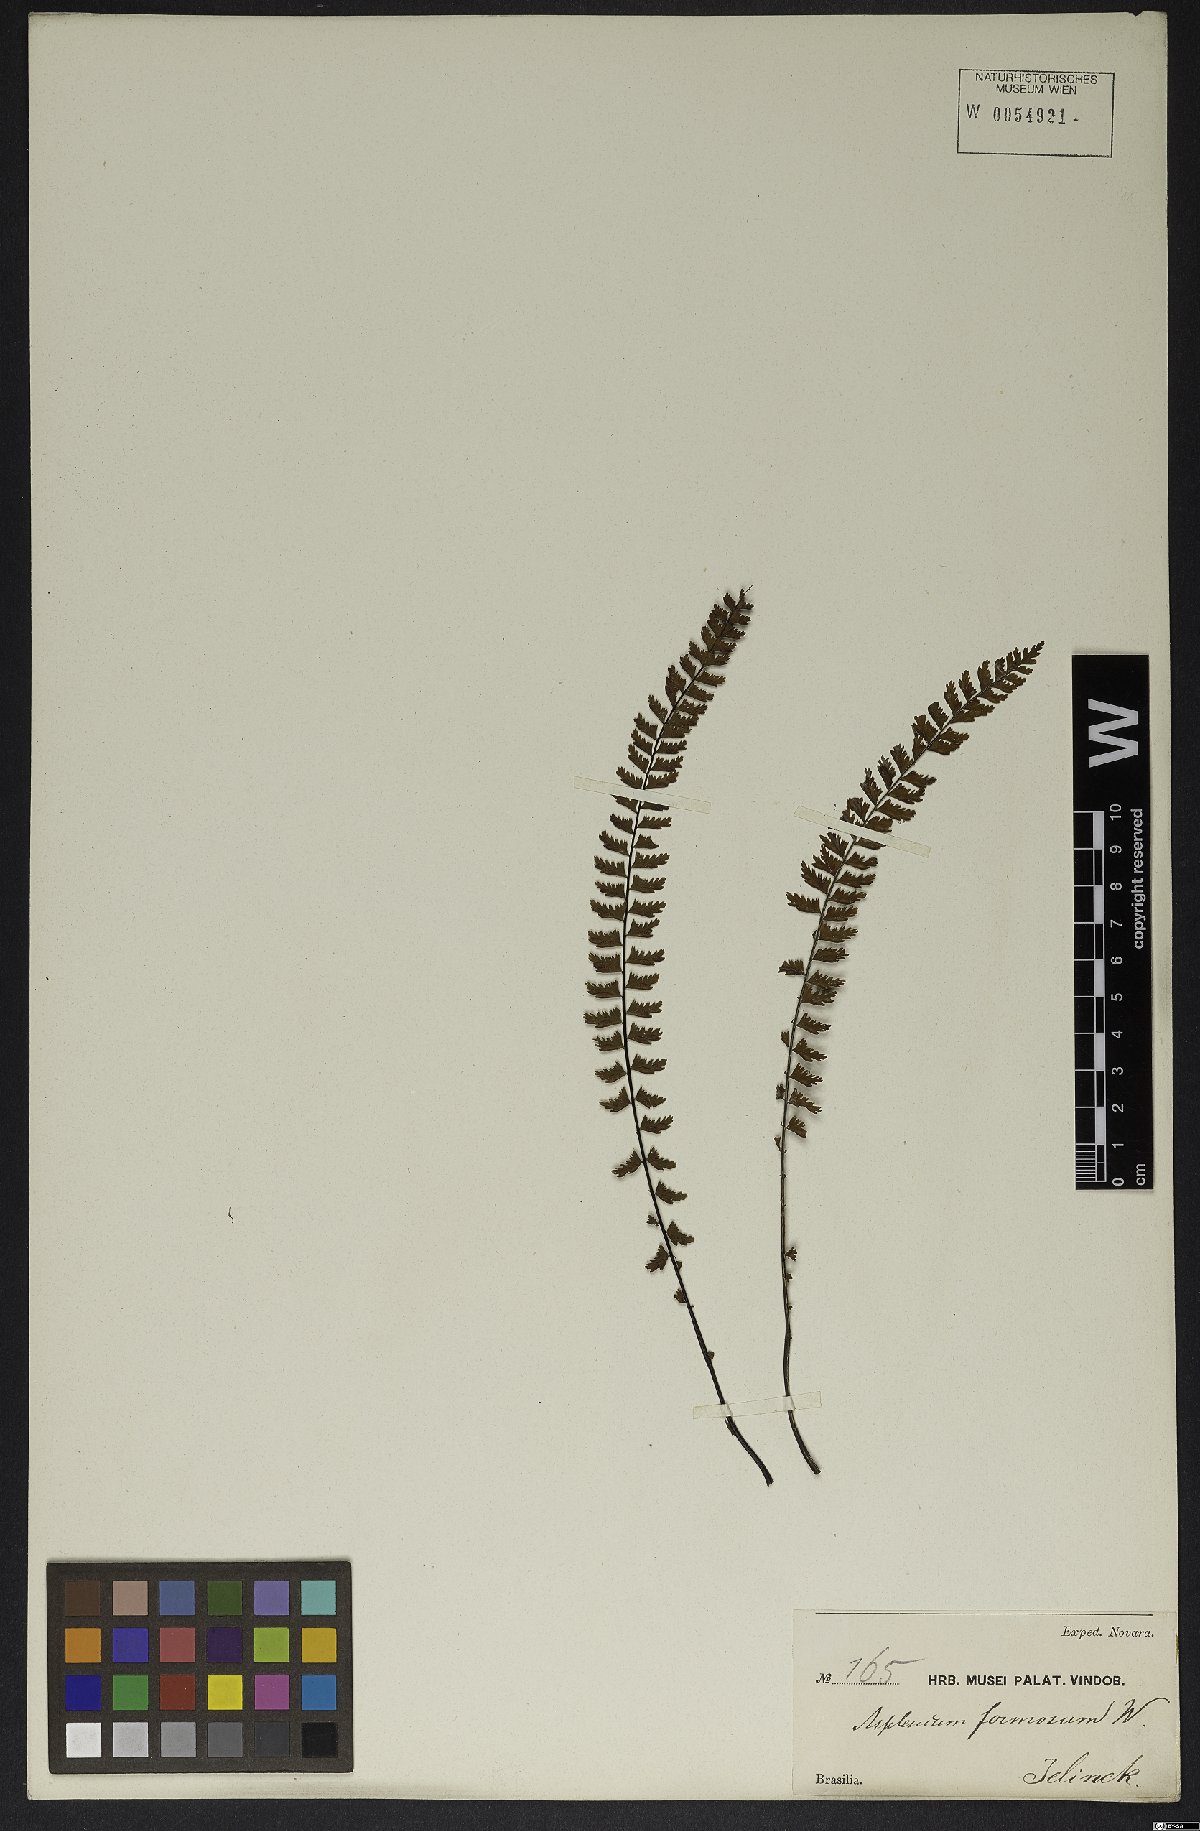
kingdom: Plantae
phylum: Tracheophyta
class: Polypodiopsida
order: Polypodiales
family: Aspleniaceae
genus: Asplenium
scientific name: Asplenium formosum
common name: Showy spleenwort
